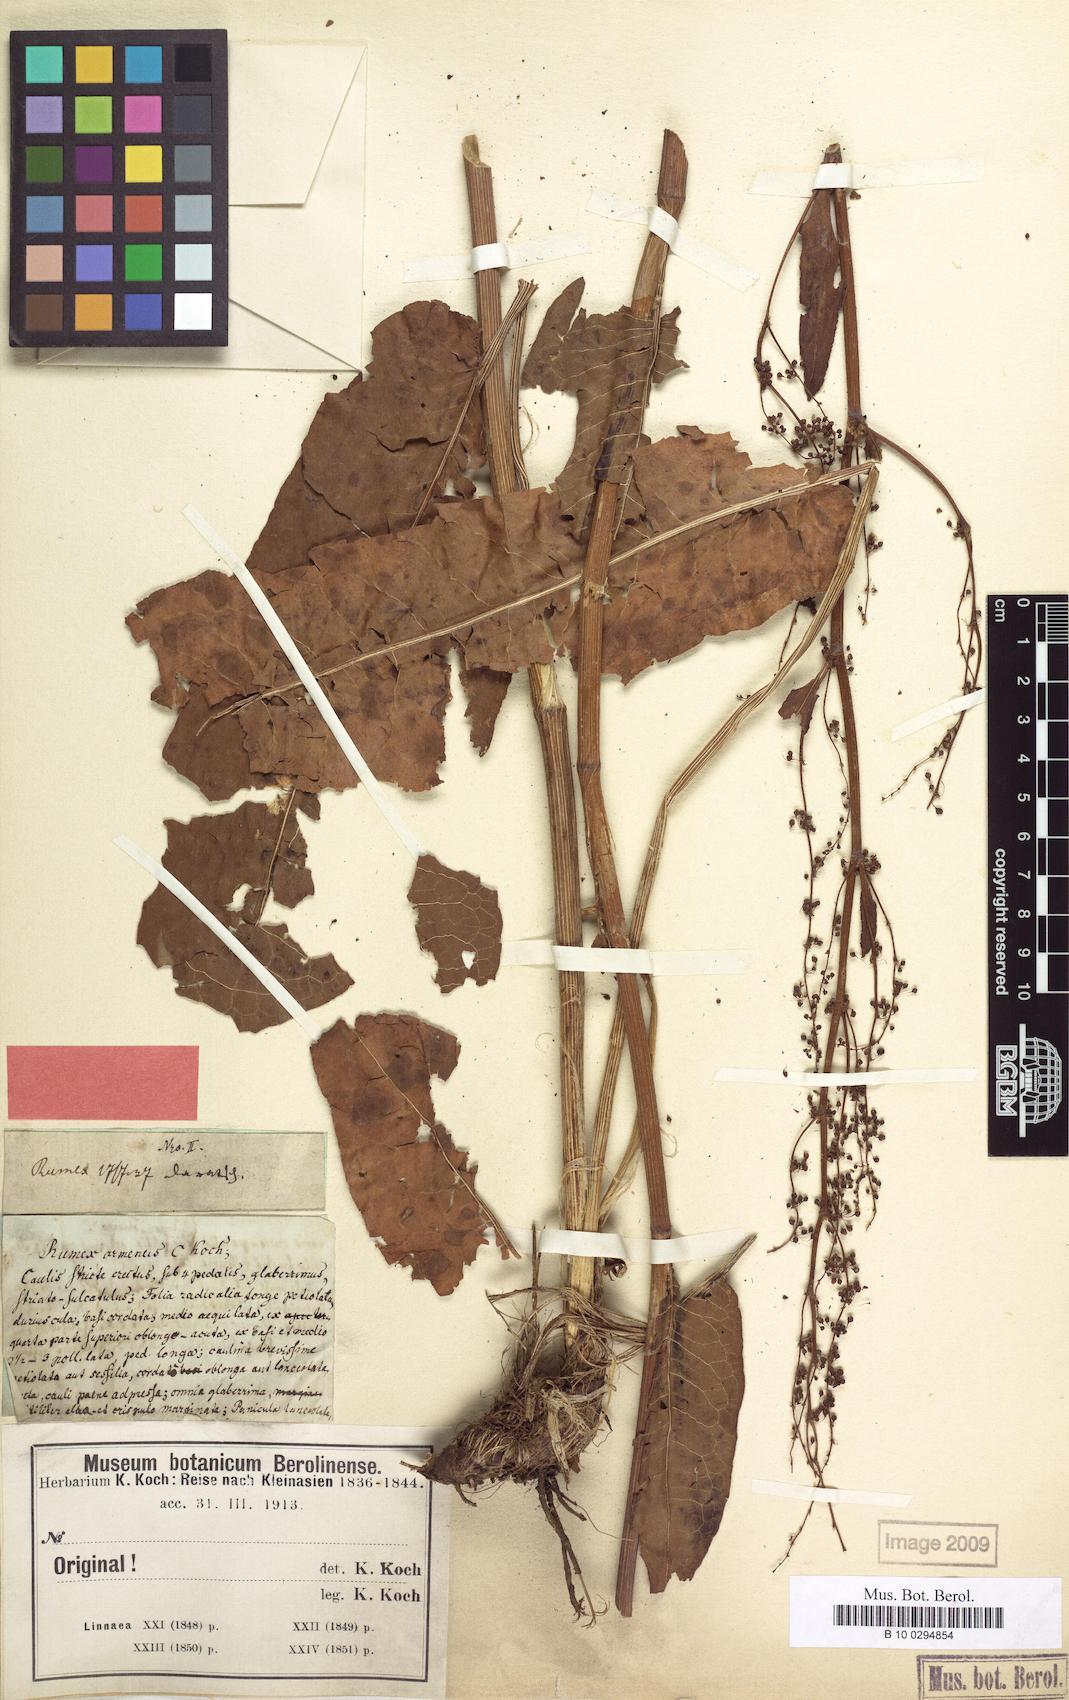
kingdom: Plantae
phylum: Tracheophyta
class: Magnoliopsida
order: Caryophyllales
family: Polygonaceae
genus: Rumex
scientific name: Rumex armenus
